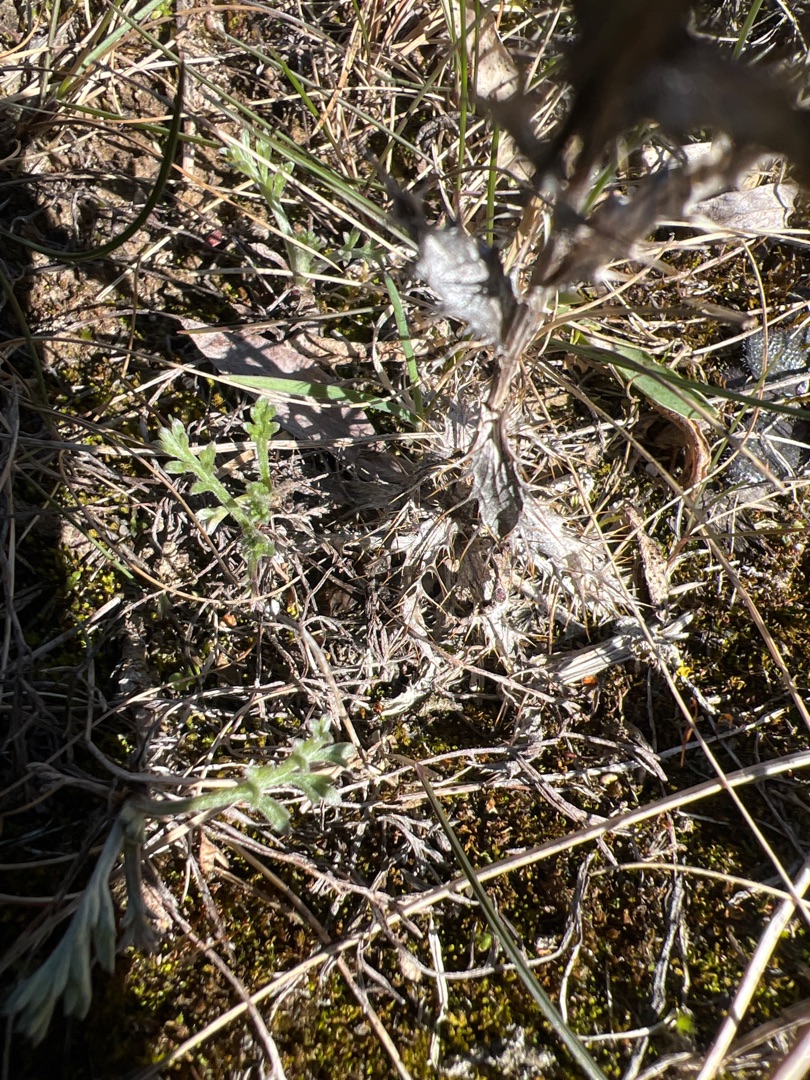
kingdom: Plantae
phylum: Tracheophyta
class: Magnoliopsida
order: Asterales
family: Asteraceae
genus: Carlina
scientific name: Carlina vulgaris
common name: Bakketidsel
